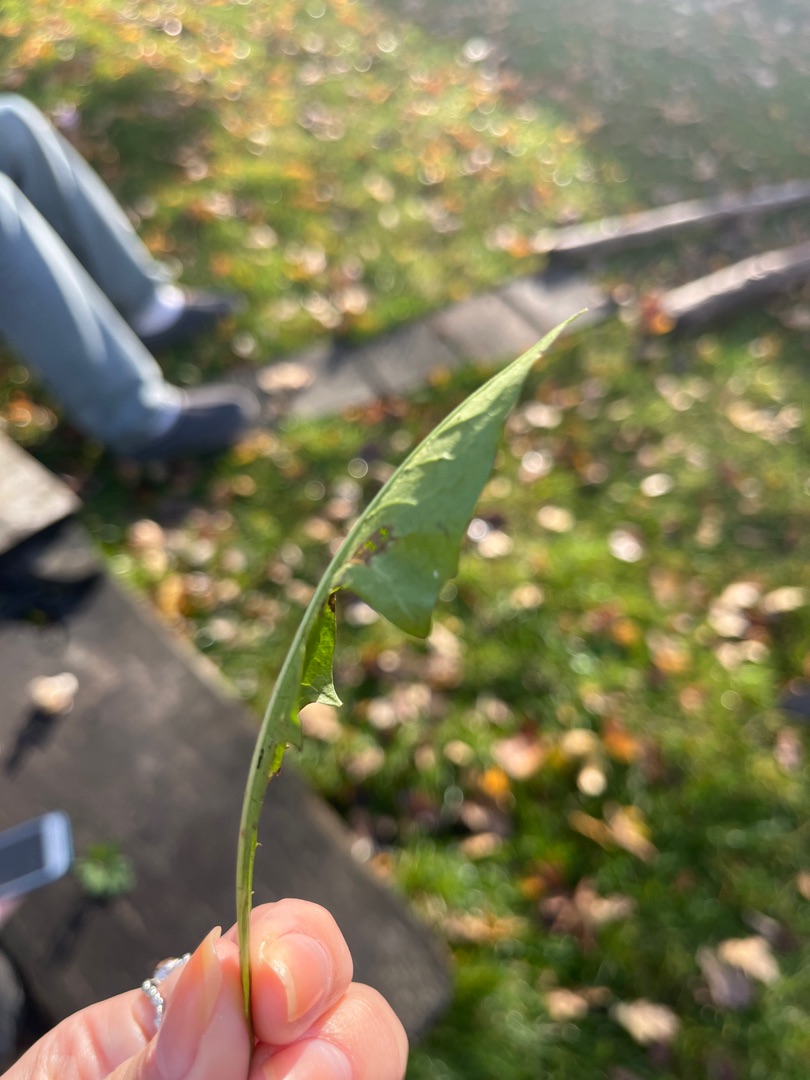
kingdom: Plantae
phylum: Tracheophyta
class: Magnoliopsida
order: Asterales
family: Asteraceae
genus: Taraxacum
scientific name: Taraxacum
